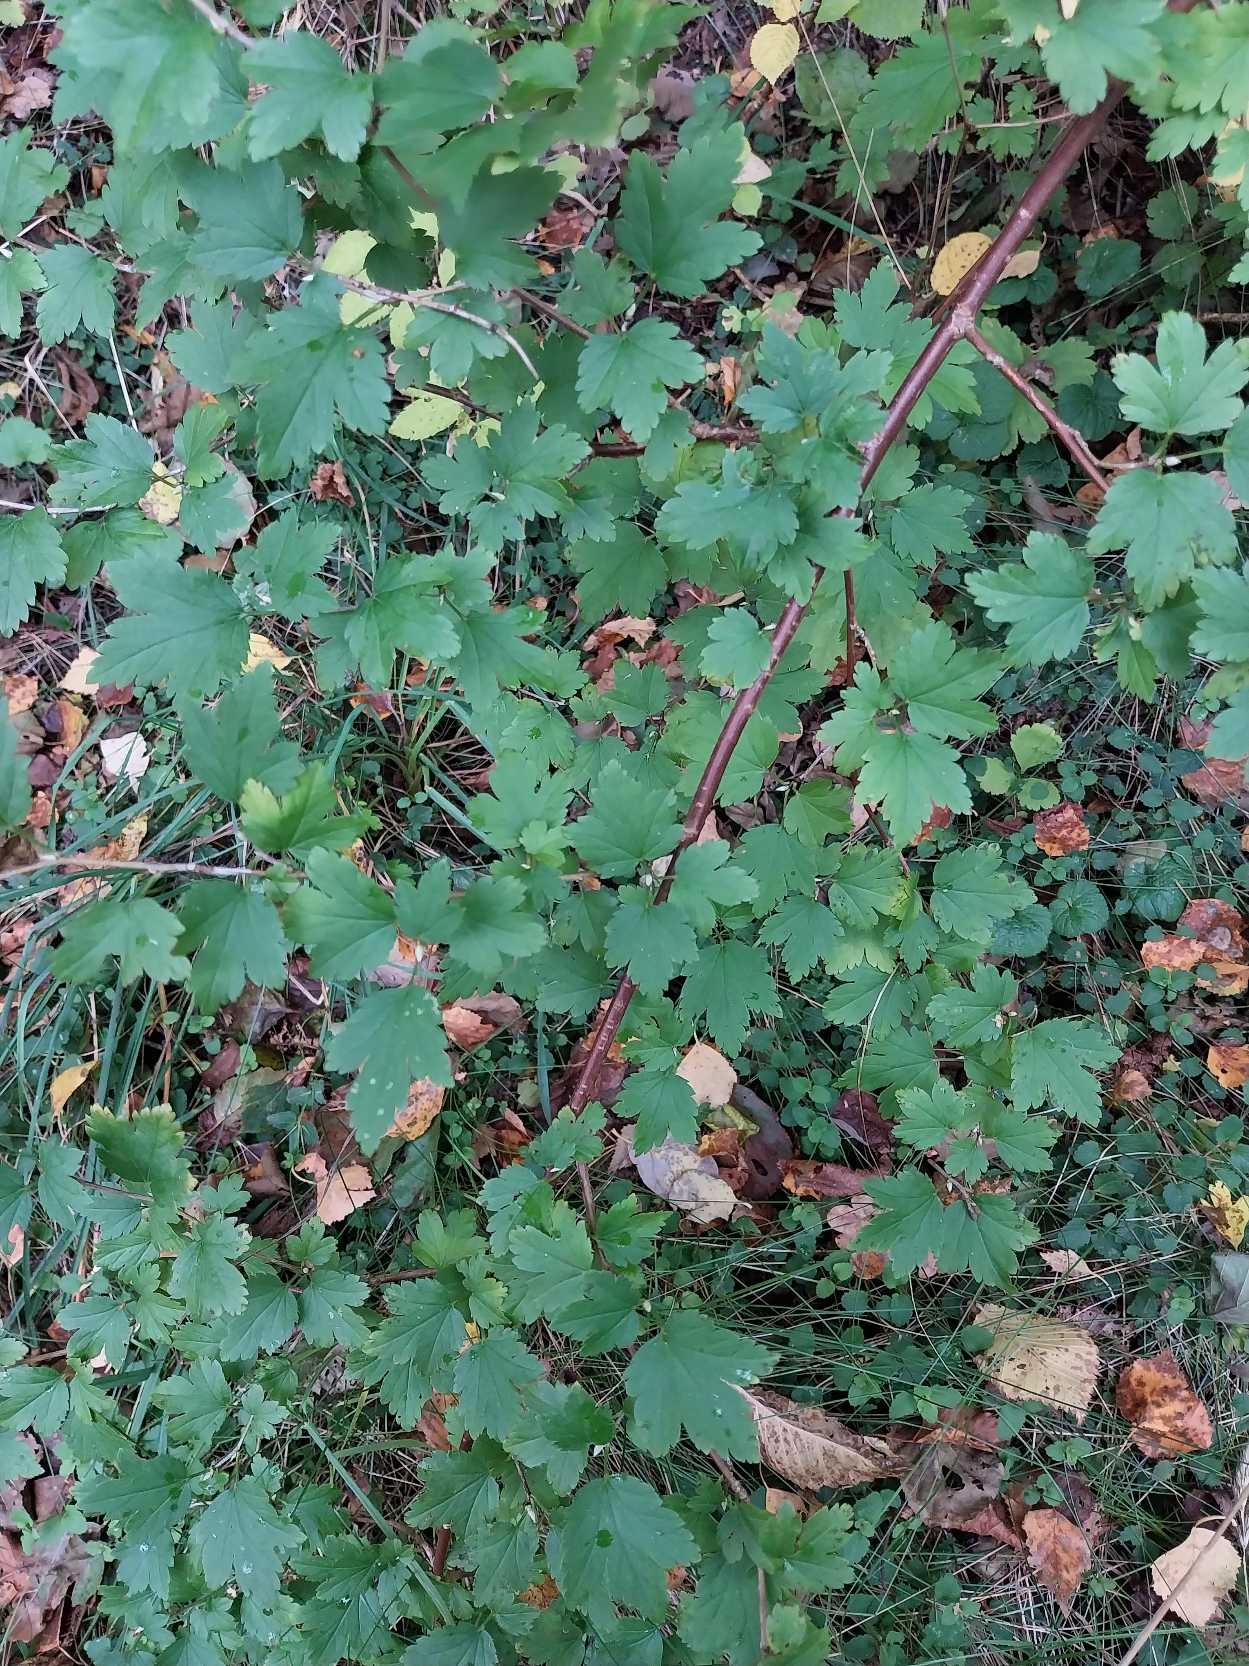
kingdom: Plantae
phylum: Tracheophyta
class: Magnoliopsida
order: Saxifragales
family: Grossulariaceae
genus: Ribes
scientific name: Ribes alpinum
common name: Fjeld-ribs
